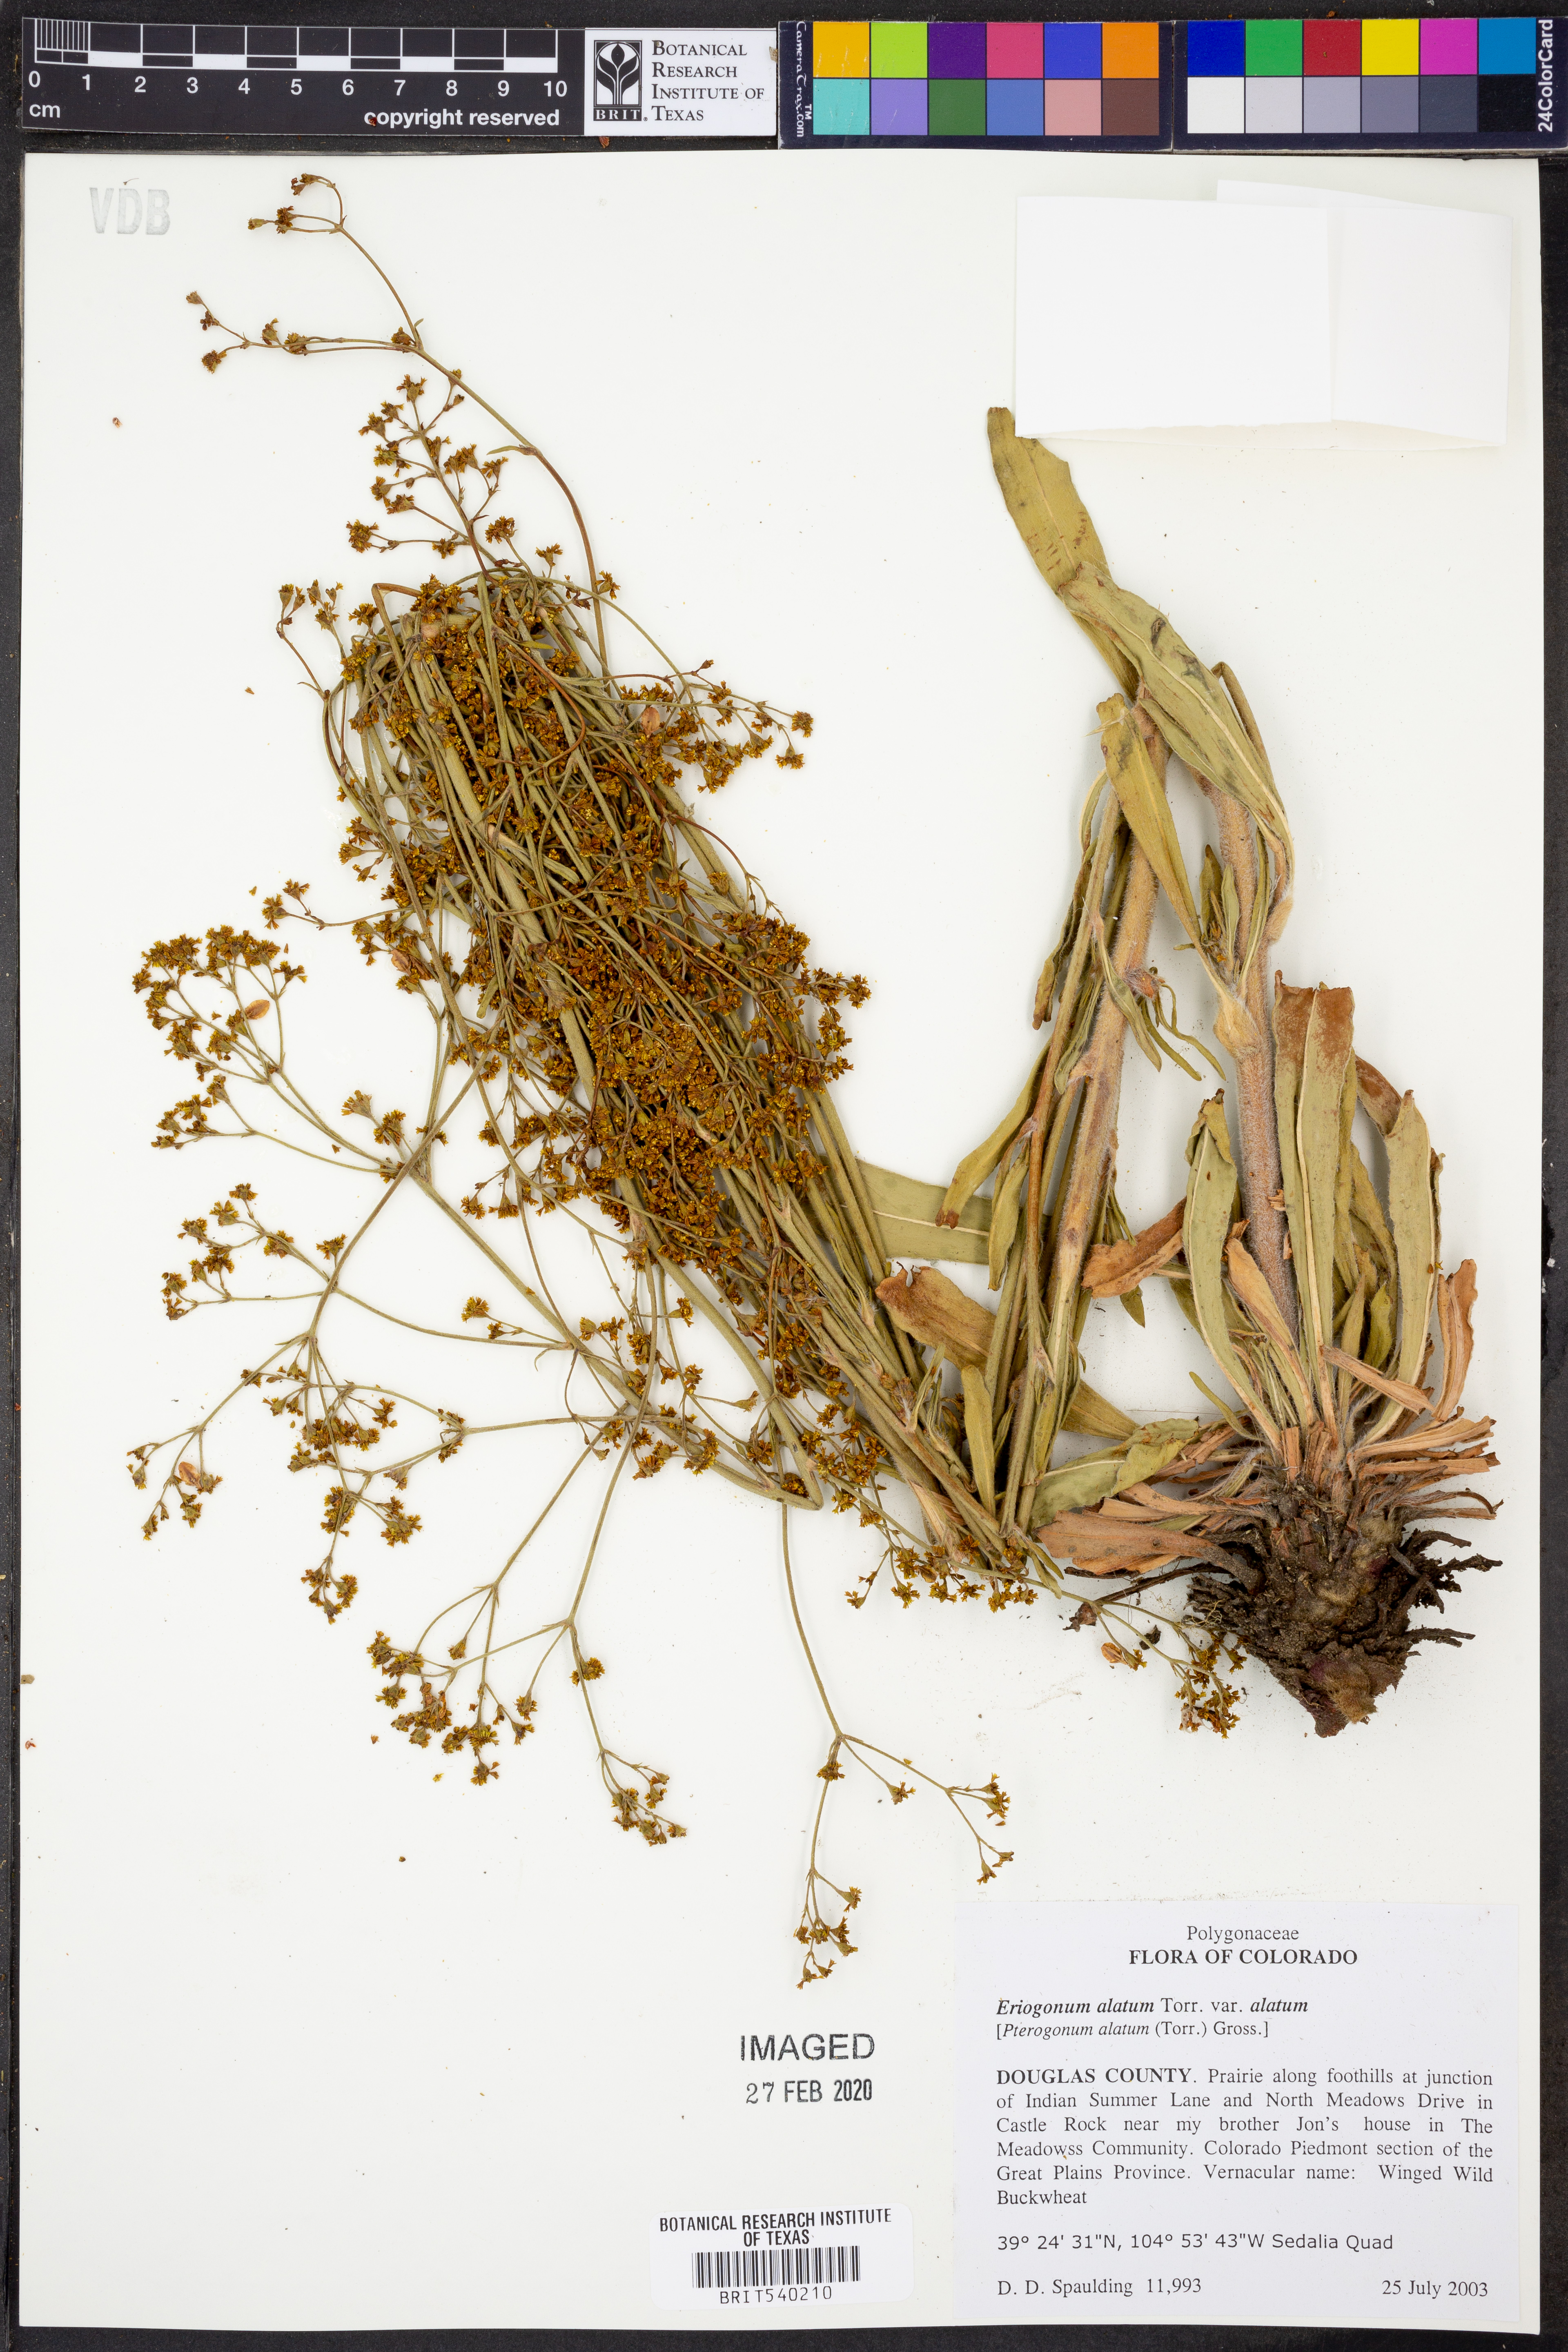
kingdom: Plantae
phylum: Tracheophyta
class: Magnoliopsida
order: Caryophyllales
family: Polygonaceae
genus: Eriogonum
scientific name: Eriogonum alatum
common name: Winged eriogonum
